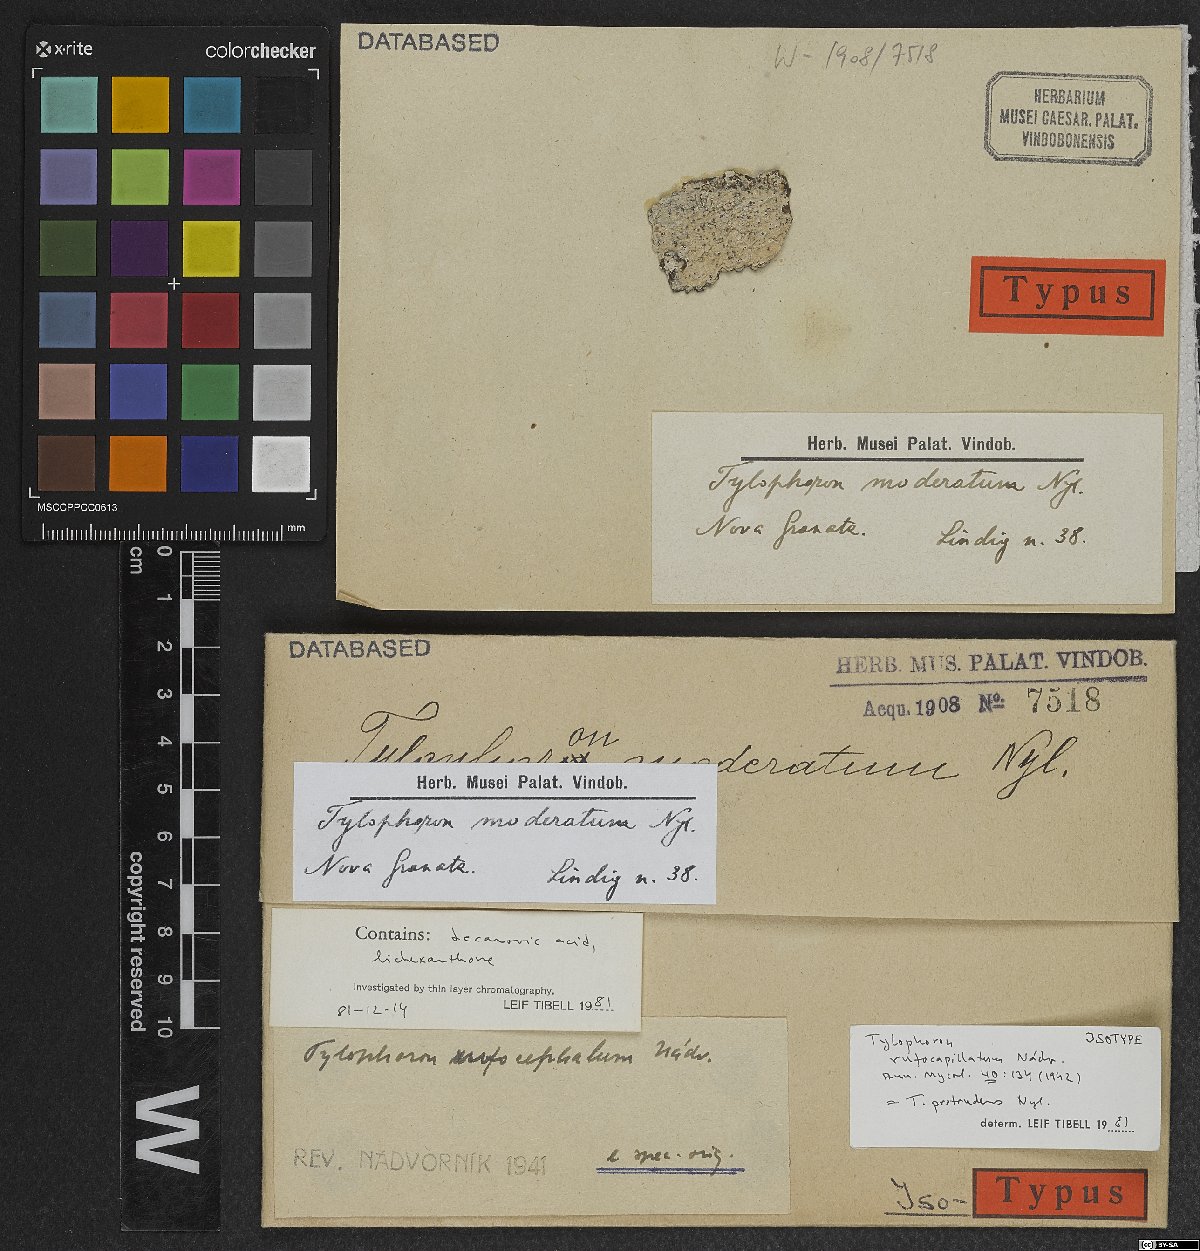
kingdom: Fungi
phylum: Ascomycota
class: Arthoniomycetes
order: Arthoniales
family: Arthoniaceae
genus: Tylophoron
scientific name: Tylophoron protrudens
